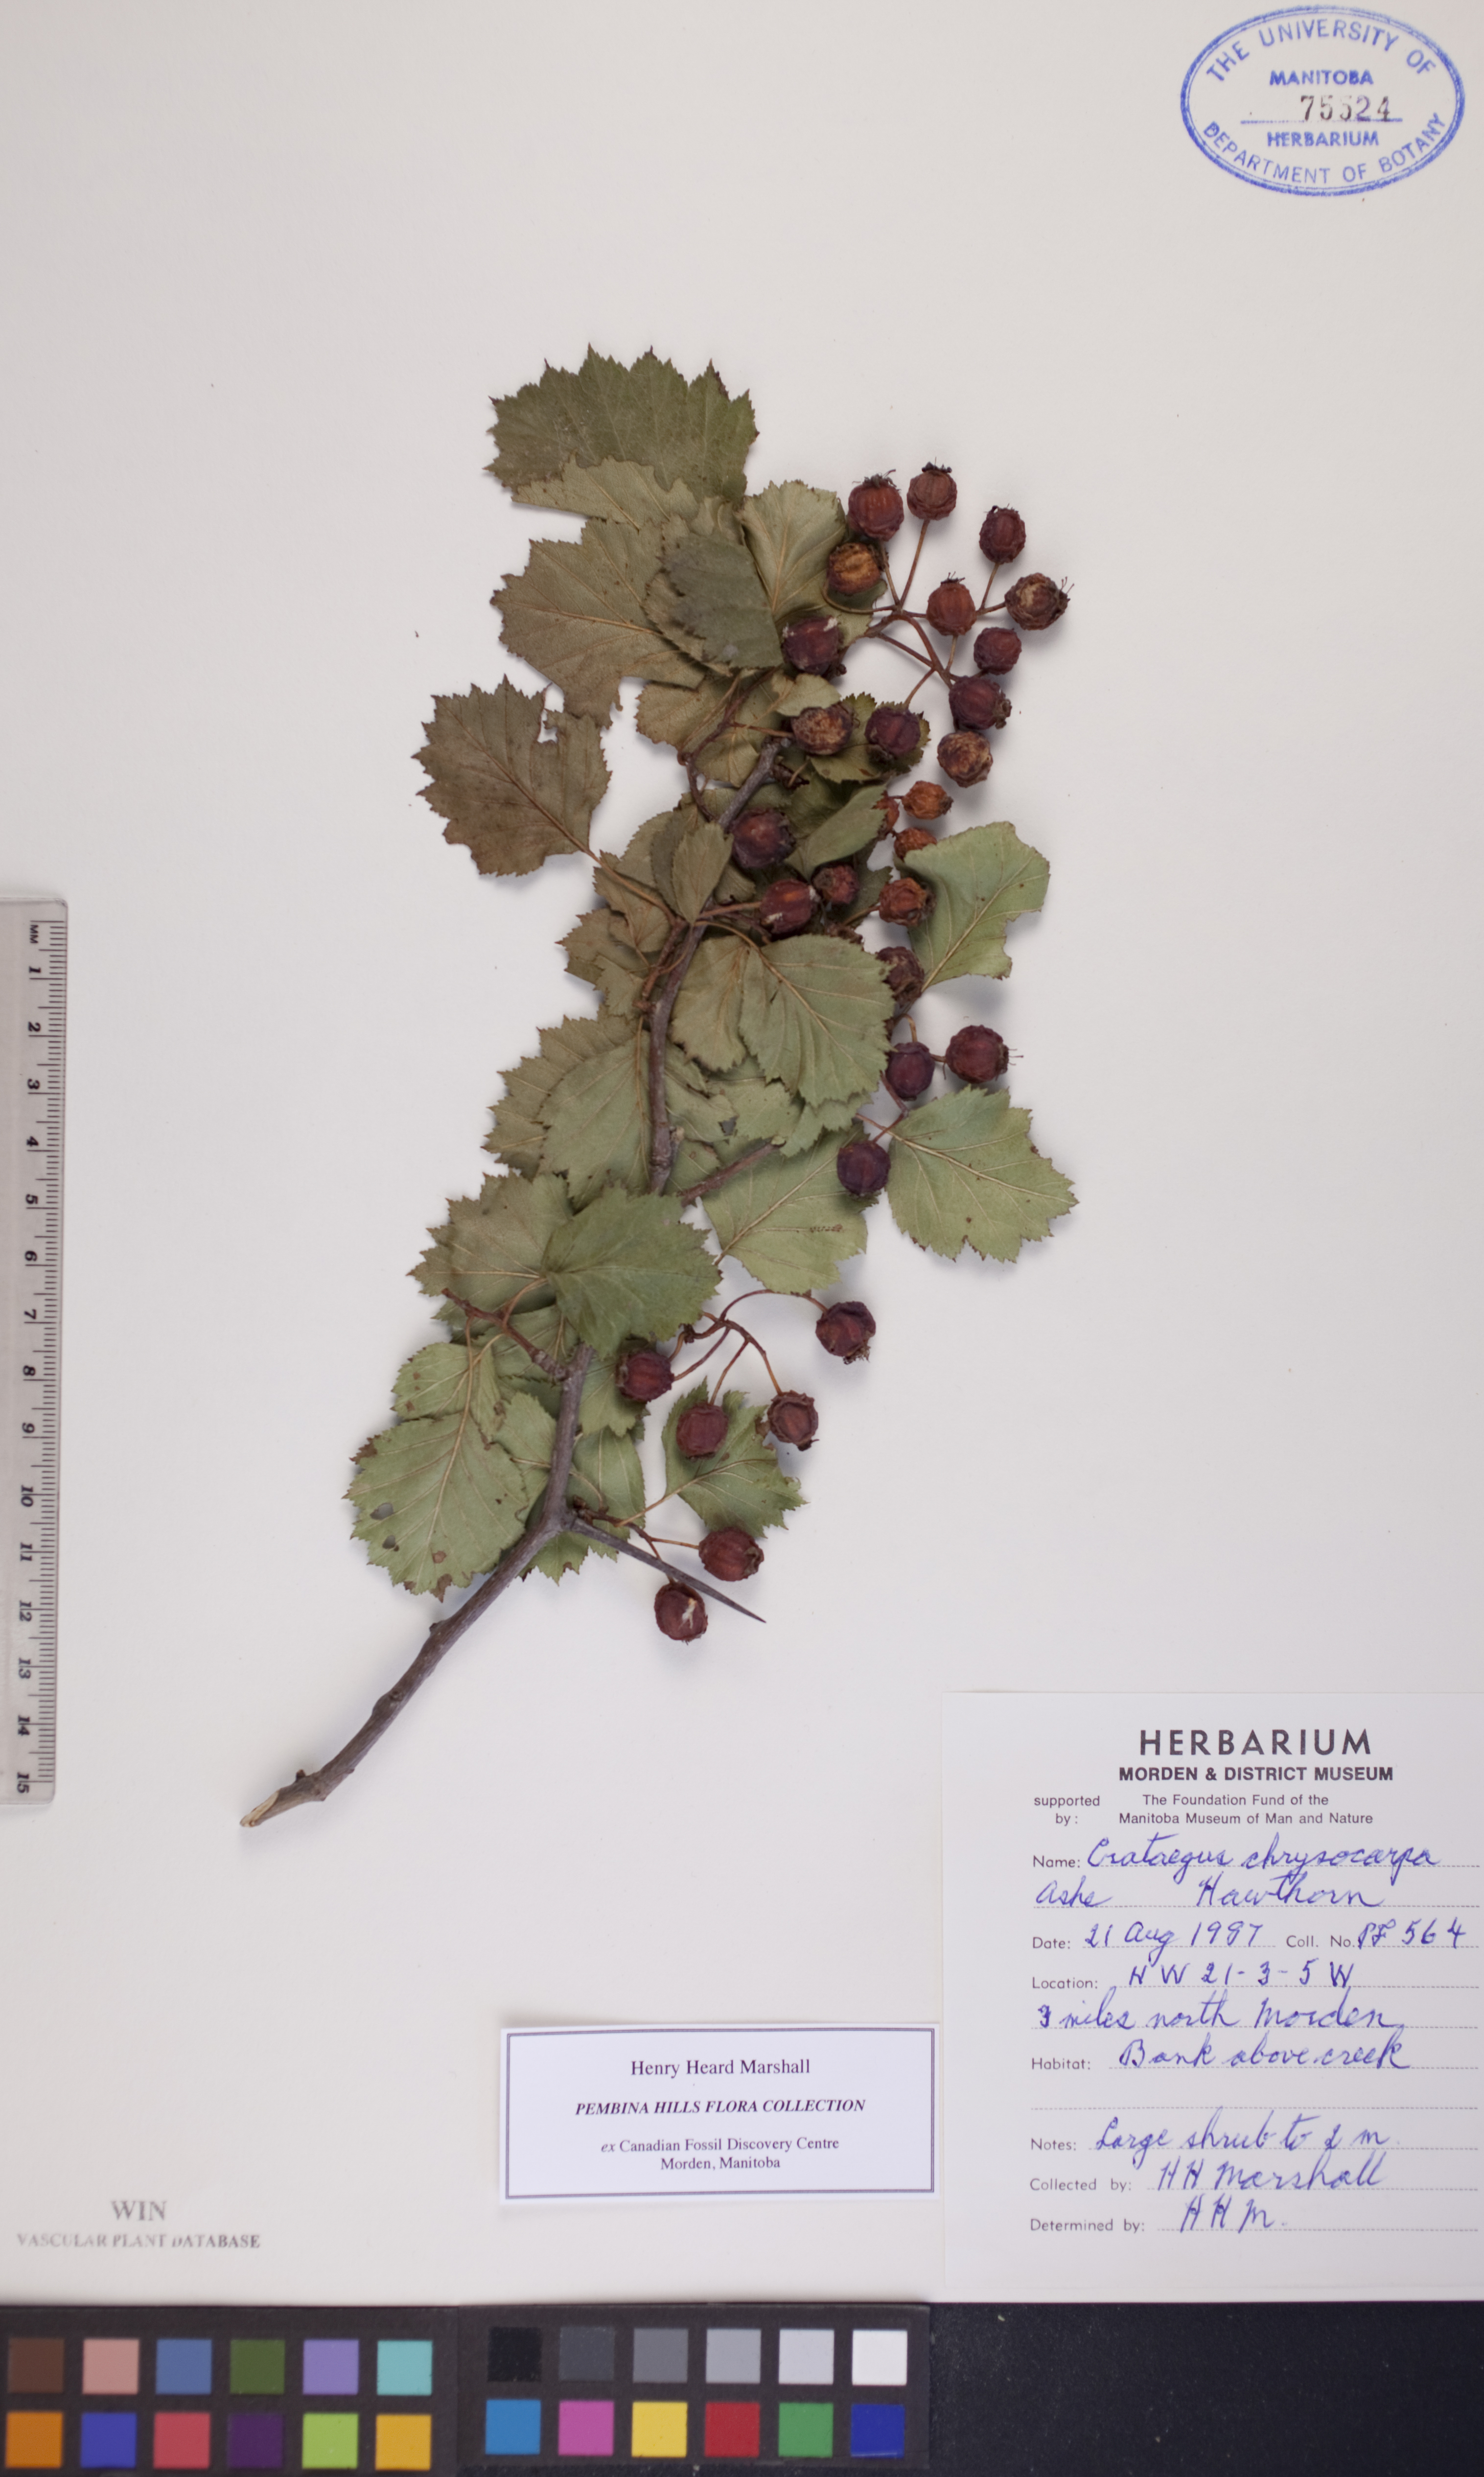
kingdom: Plantae
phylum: Tracheophyta
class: Magnoliopsida
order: Rosales
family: Rosaceae
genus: Crataegus
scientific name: Crataegus chrysocarpa
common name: Fire-berry hawthorn
